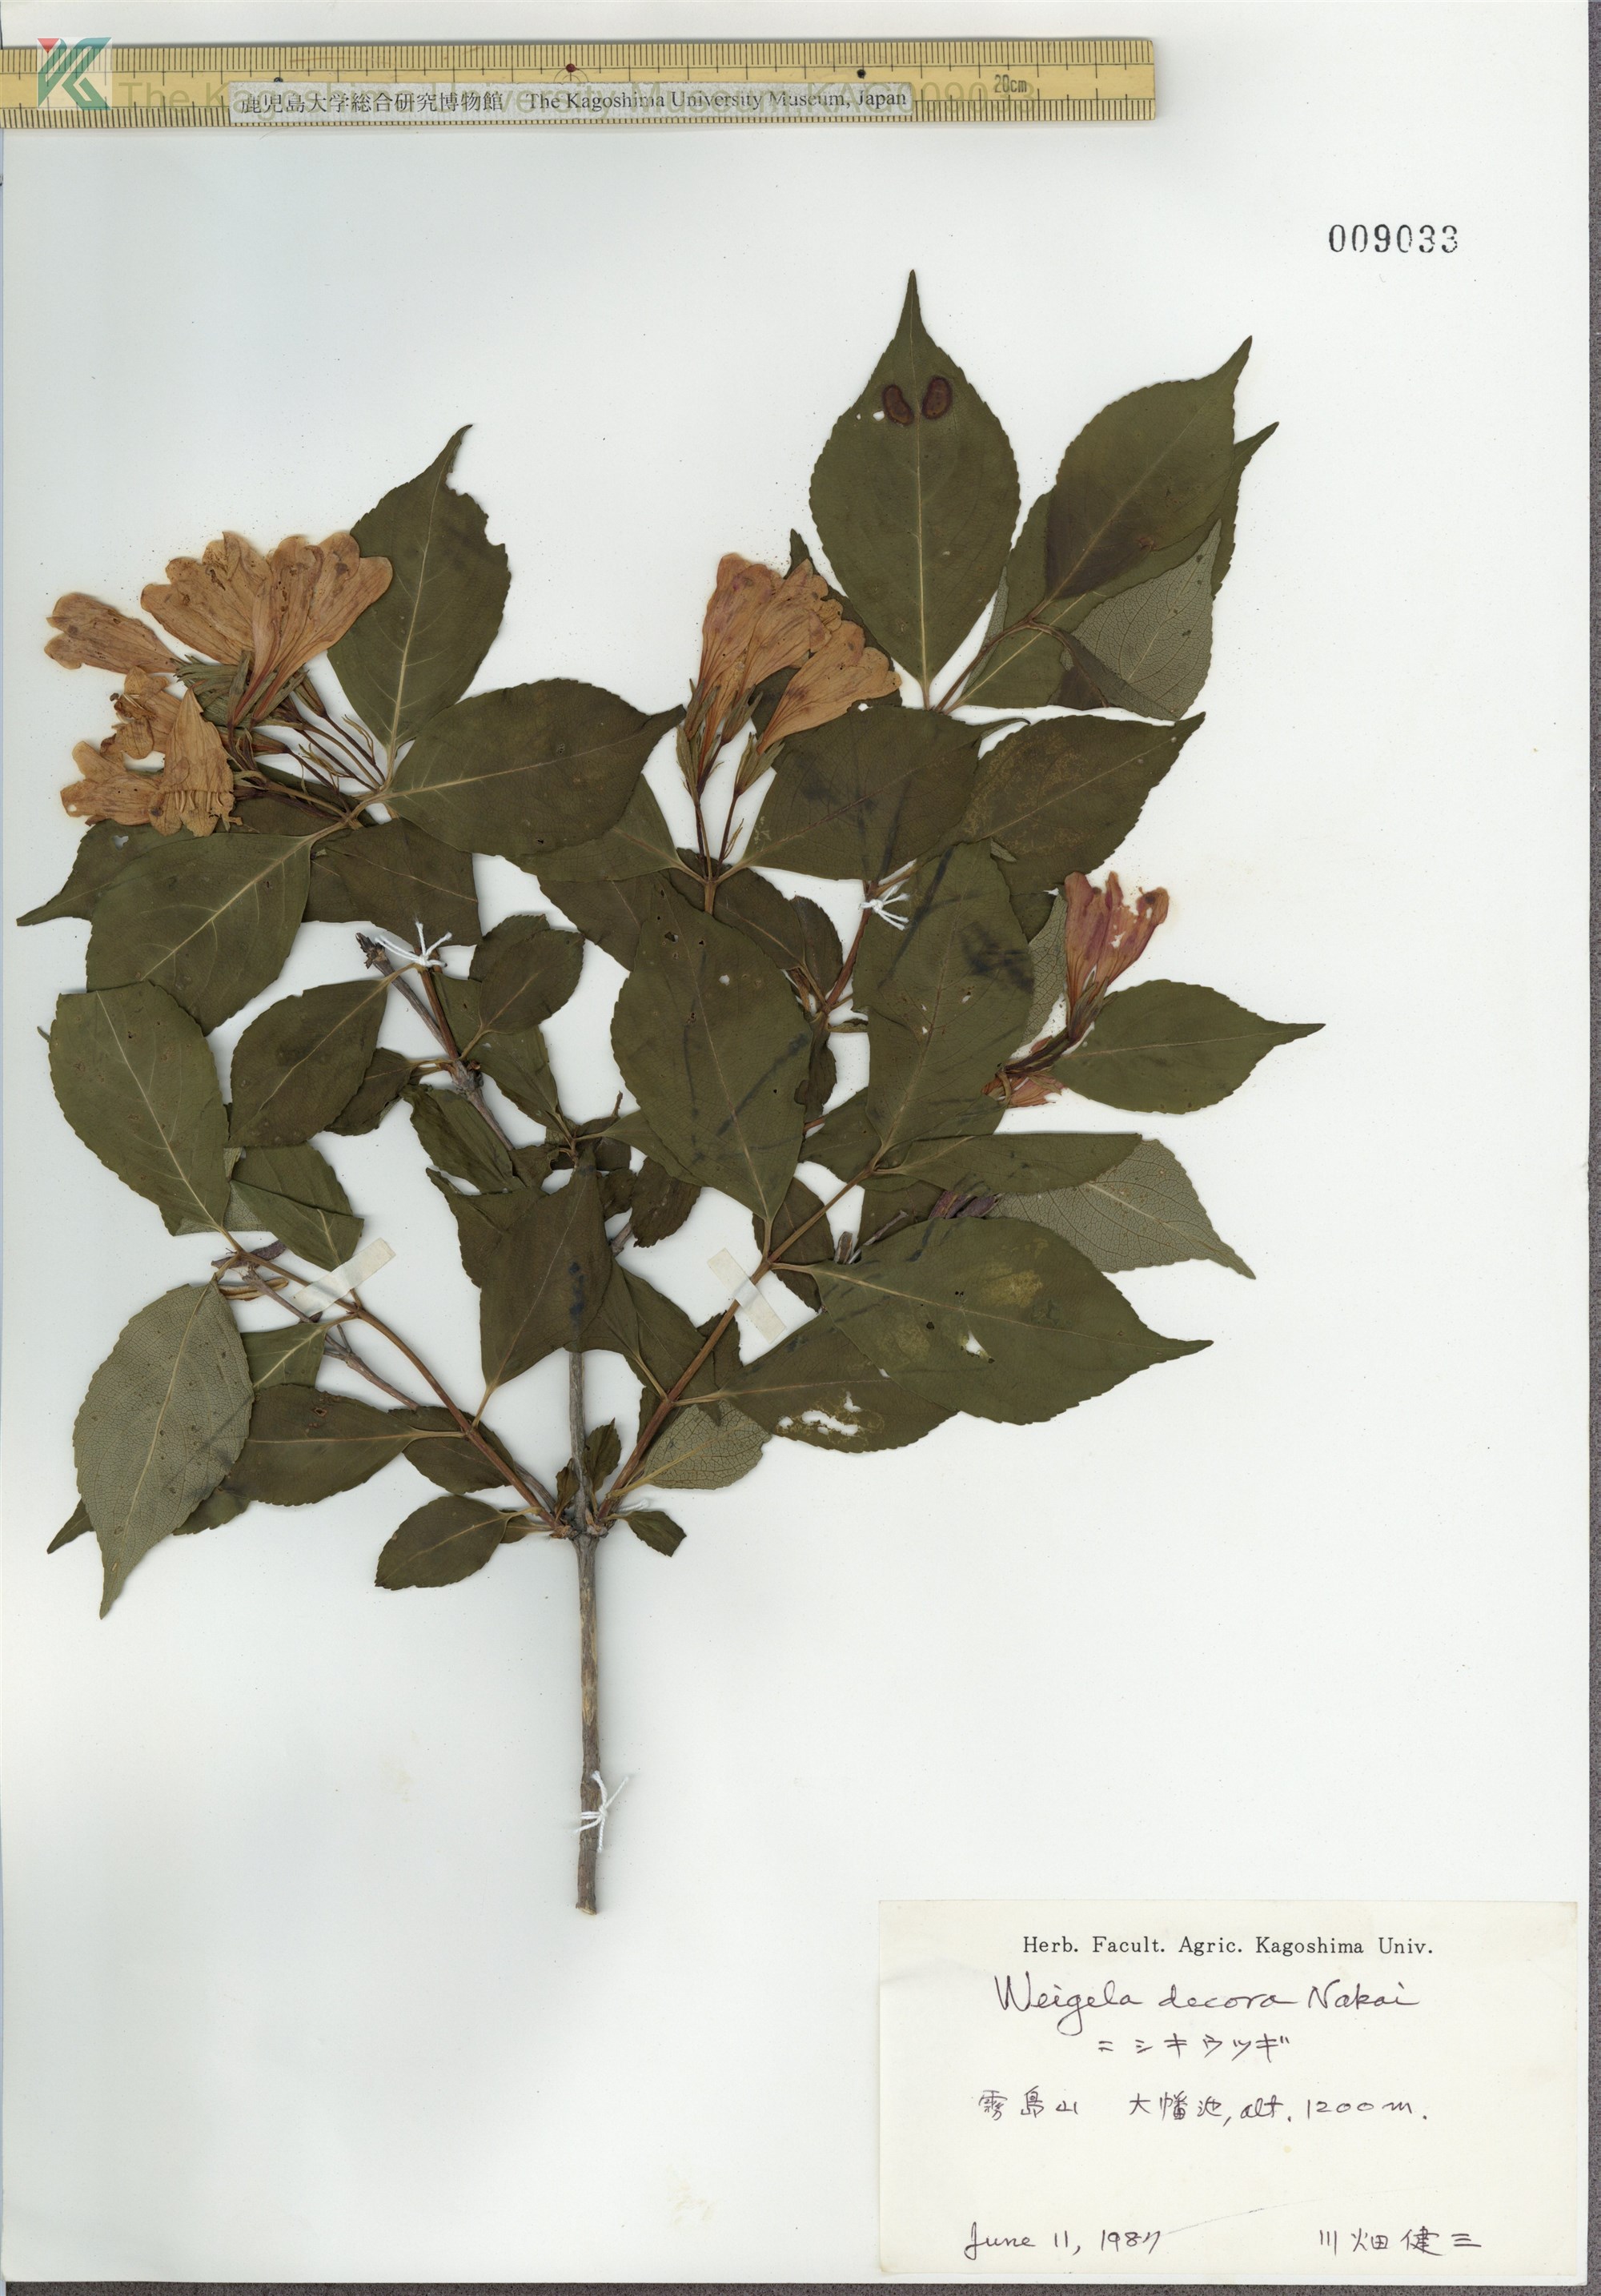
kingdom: Plantae
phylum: Tracheophyta
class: Magnoliopsida
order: Dipsacales
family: Caprifoliaceae
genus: Weigela
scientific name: Weigela decora
